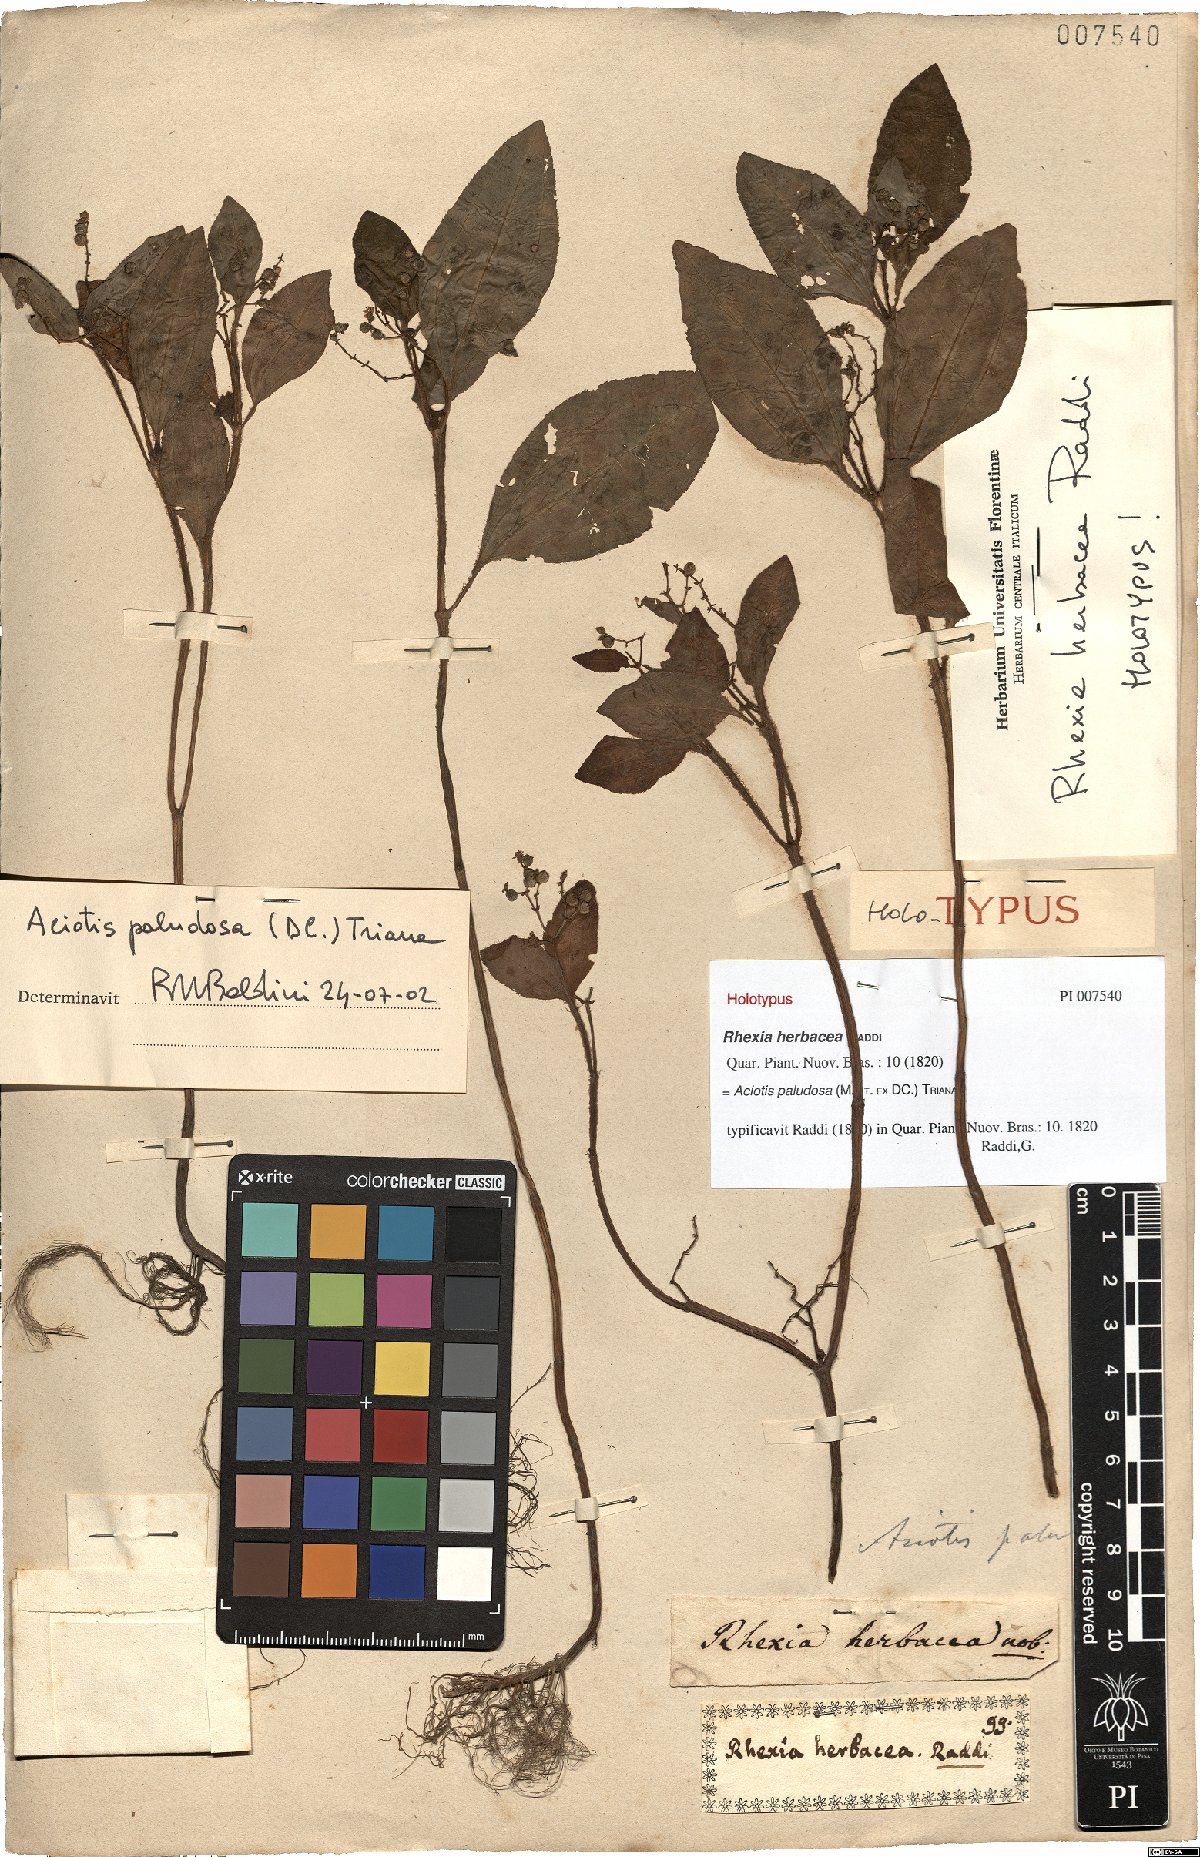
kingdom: Plantae
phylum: Tracheophyta
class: Magnoliopsida
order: Myrtales
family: Melastomataceae
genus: Aciotis
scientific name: Aciotis paludosa
